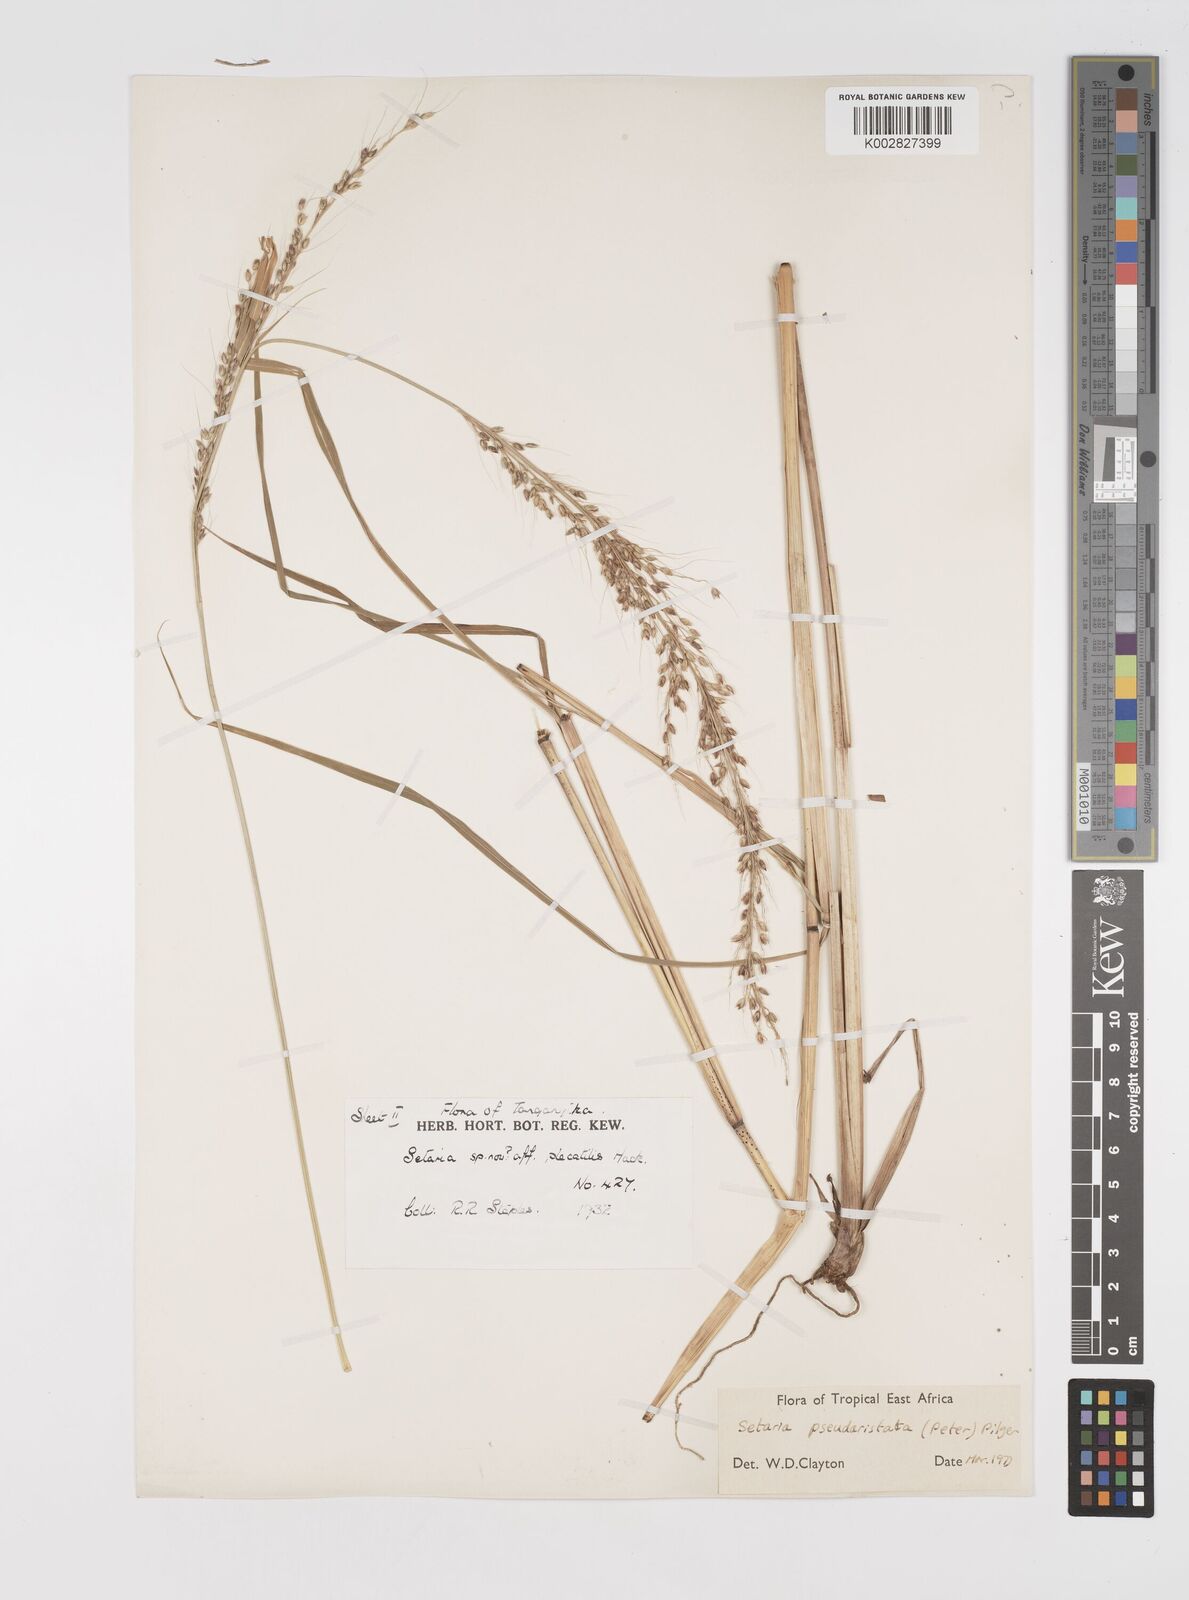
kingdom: Plantae
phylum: Tracheophyta
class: Liliopsida
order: Poales
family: Poaceae
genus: Setaria
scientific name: Setaria pseudaristata
